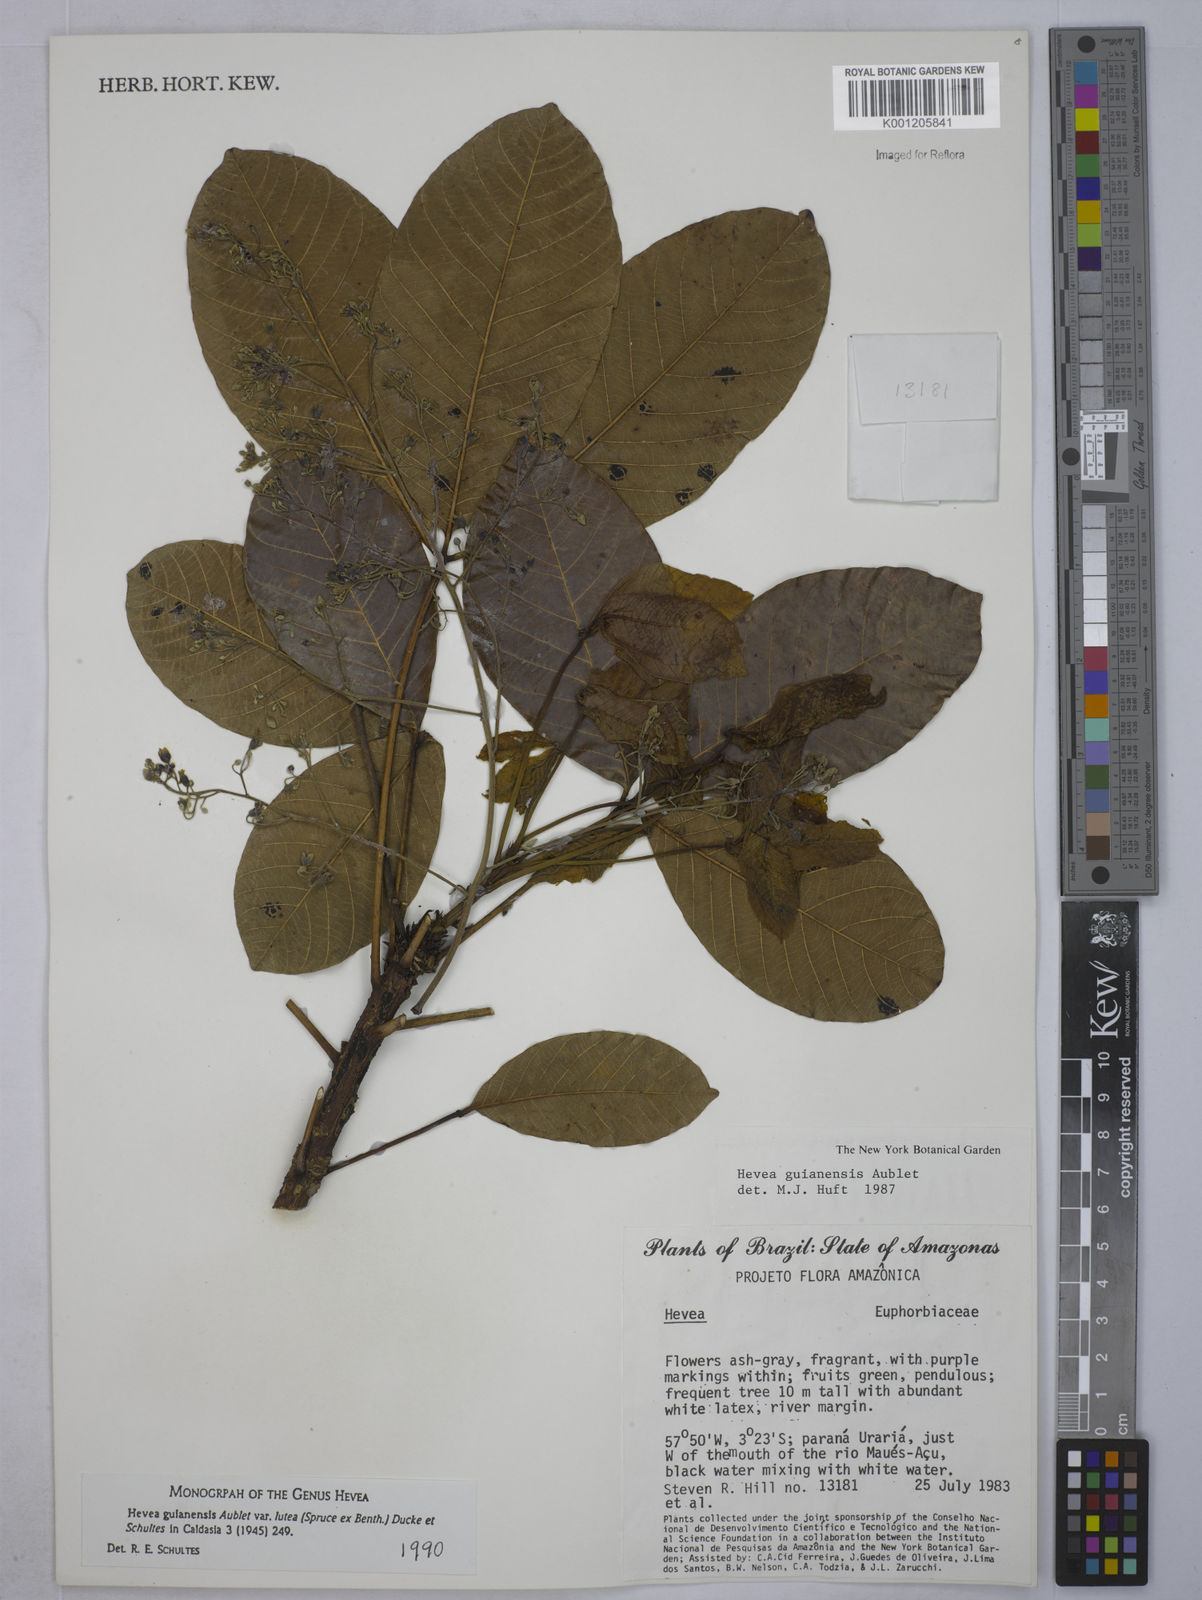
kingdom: Plantae
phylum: Tracheophyta
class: Magnoliopsida
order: Malpighiales
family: Euphorbiaceae
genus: Hevea
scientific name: Hevea guianensis
